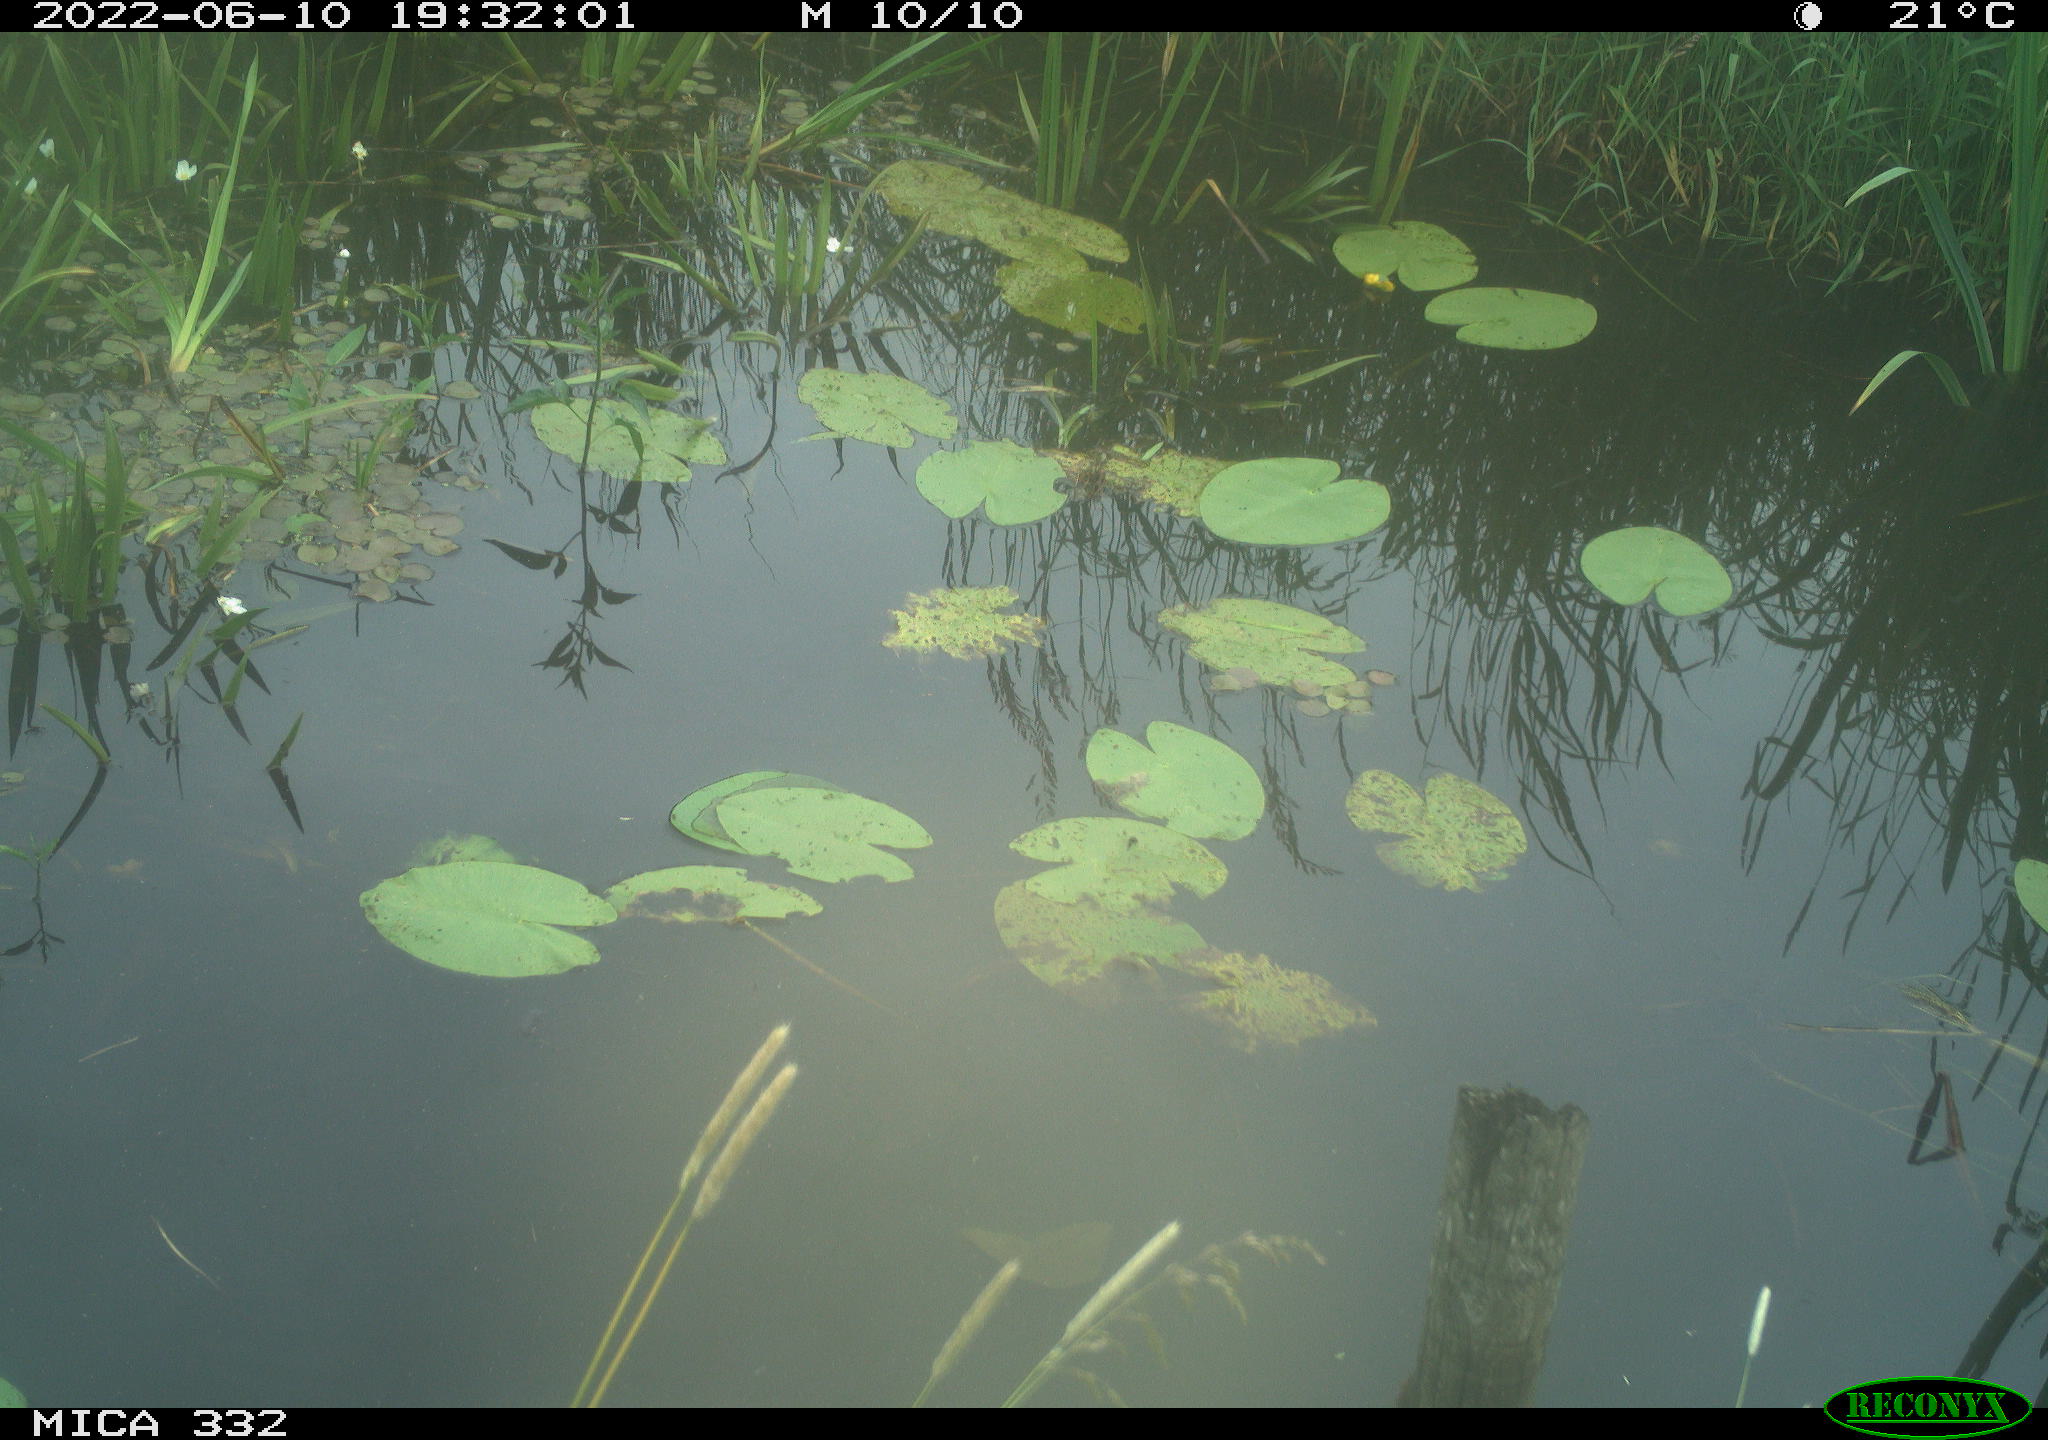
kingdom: Animalia
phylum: Chordata
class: Aves
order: Anseriformes
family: Anatidae
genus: Anas
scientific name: Anas platyrhynchos
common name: Mallard
